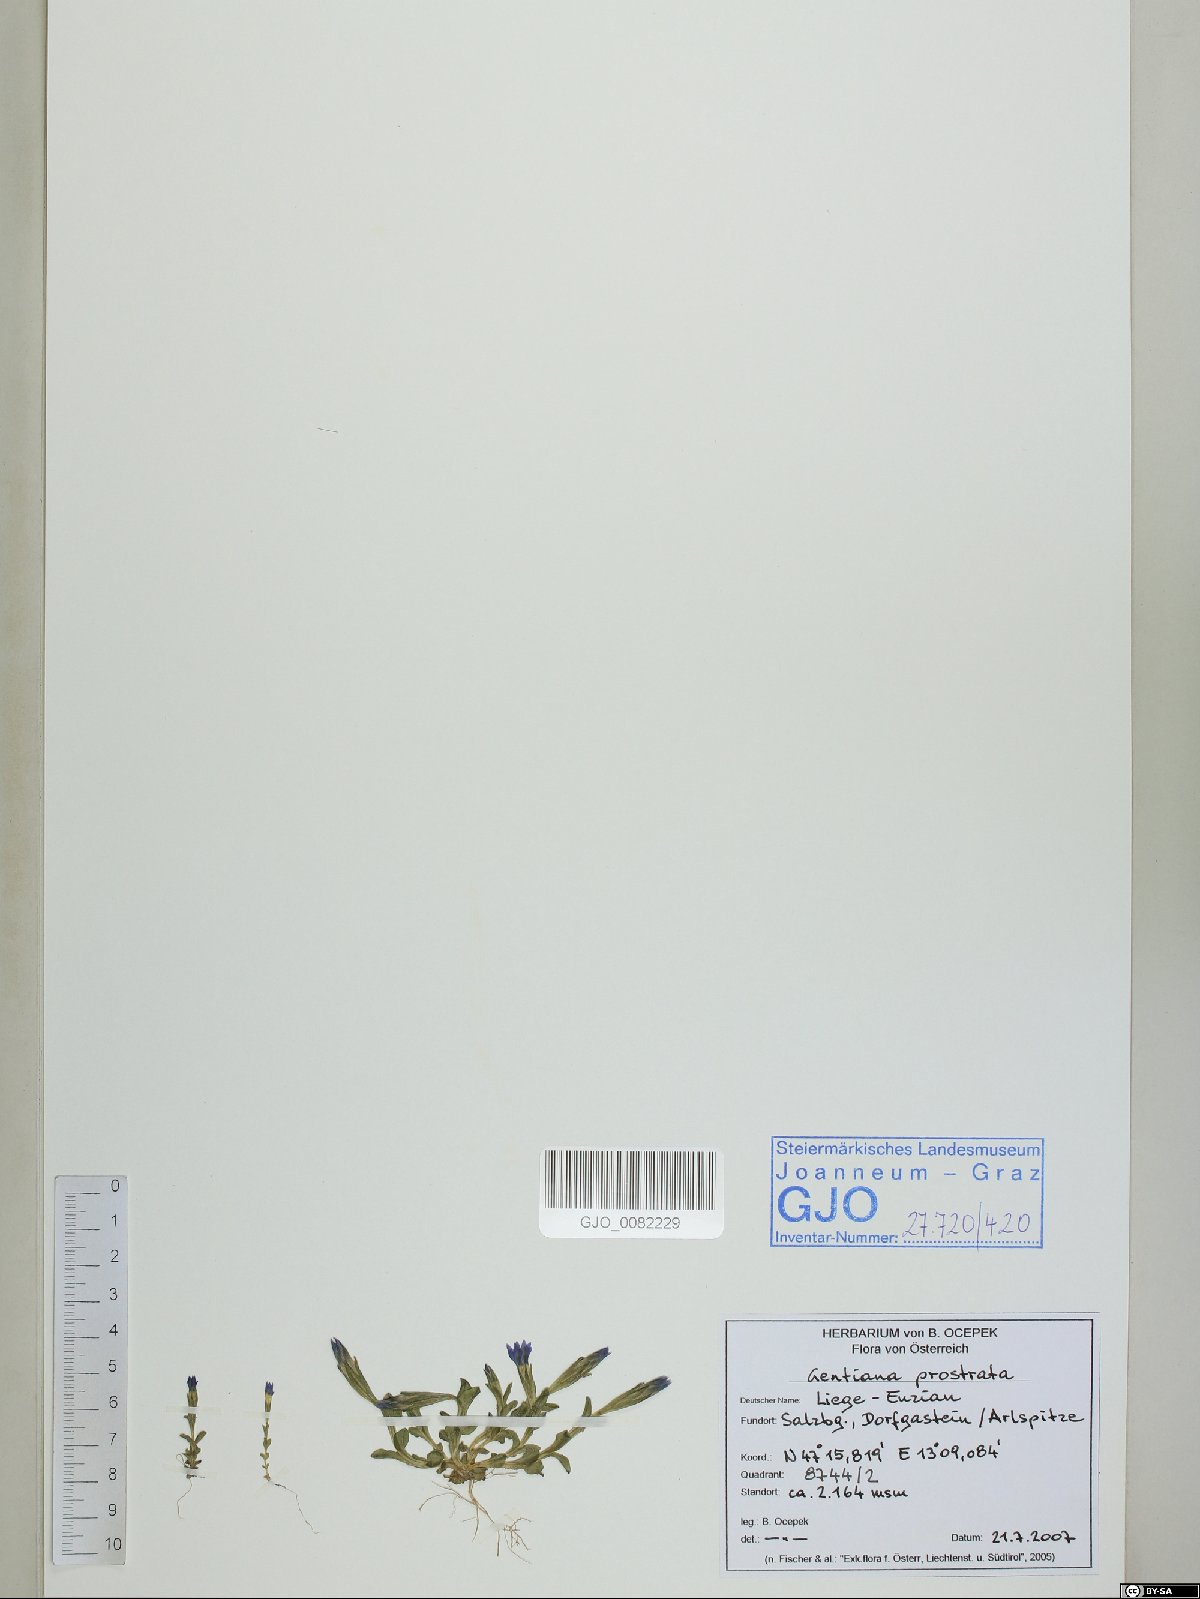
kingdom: Plantae
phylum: Tracheophyta
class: Magnoliopsida
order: Gentianales
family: Gentianaceae
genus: Gentiana
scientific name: Gentiana prostrata
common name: Moss gentian
